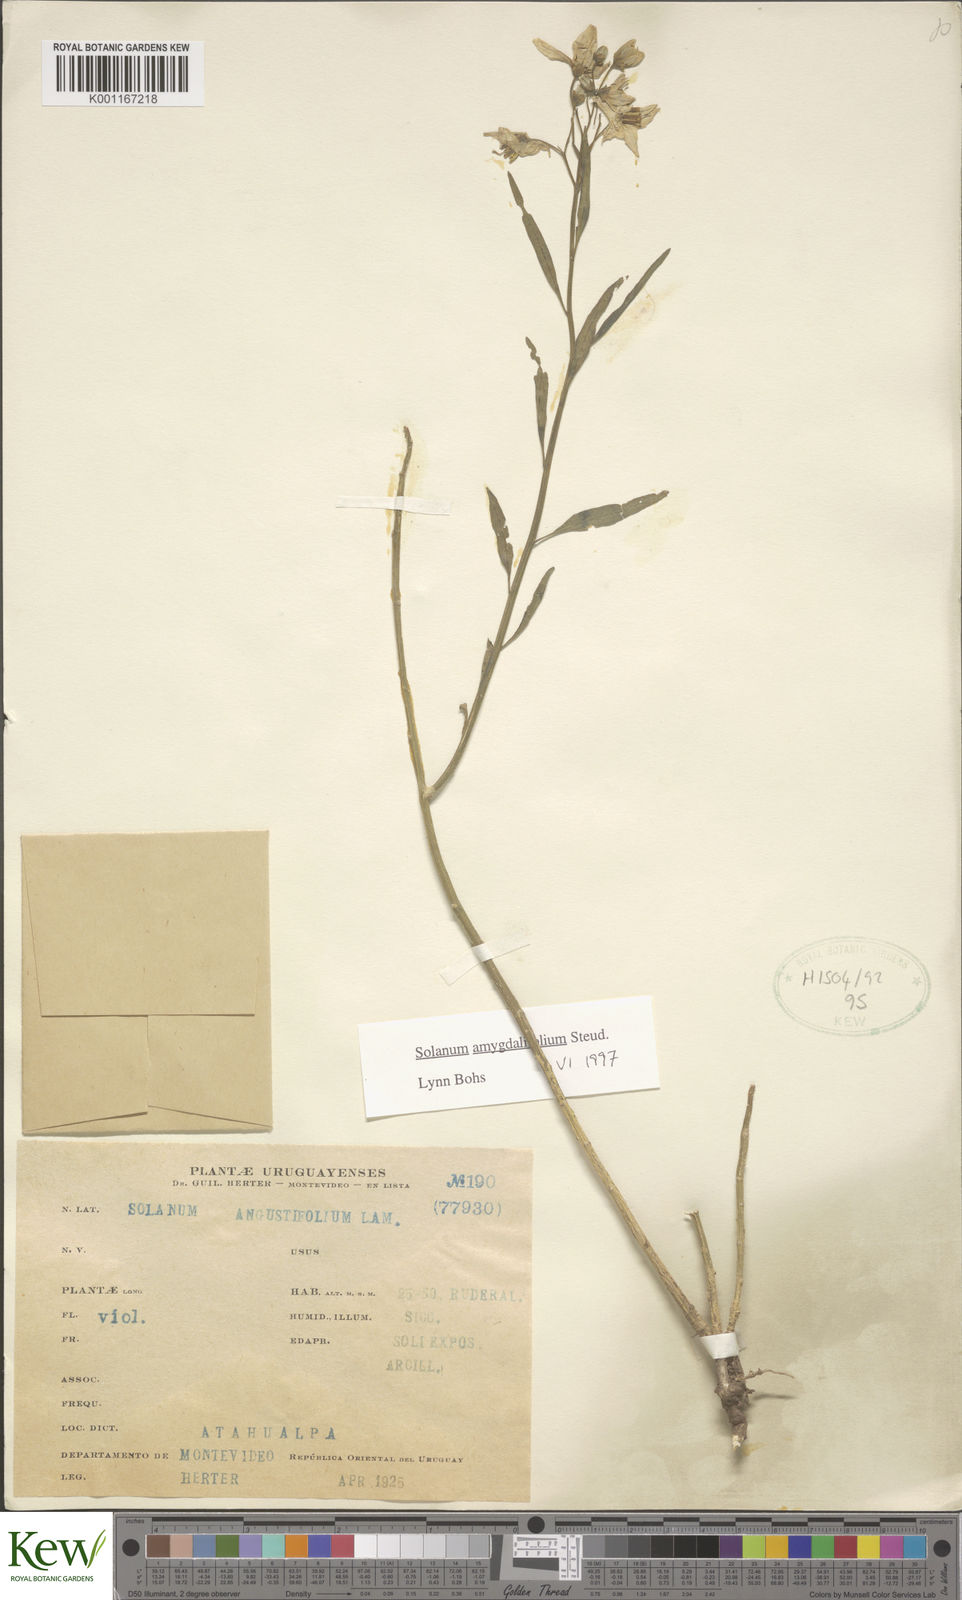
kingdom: Plantae
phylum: Tracheophyta
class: Magnoliopsida
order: Solanales
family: Solanaceae
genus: Solanum
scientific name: Solanum amygdalifolium
